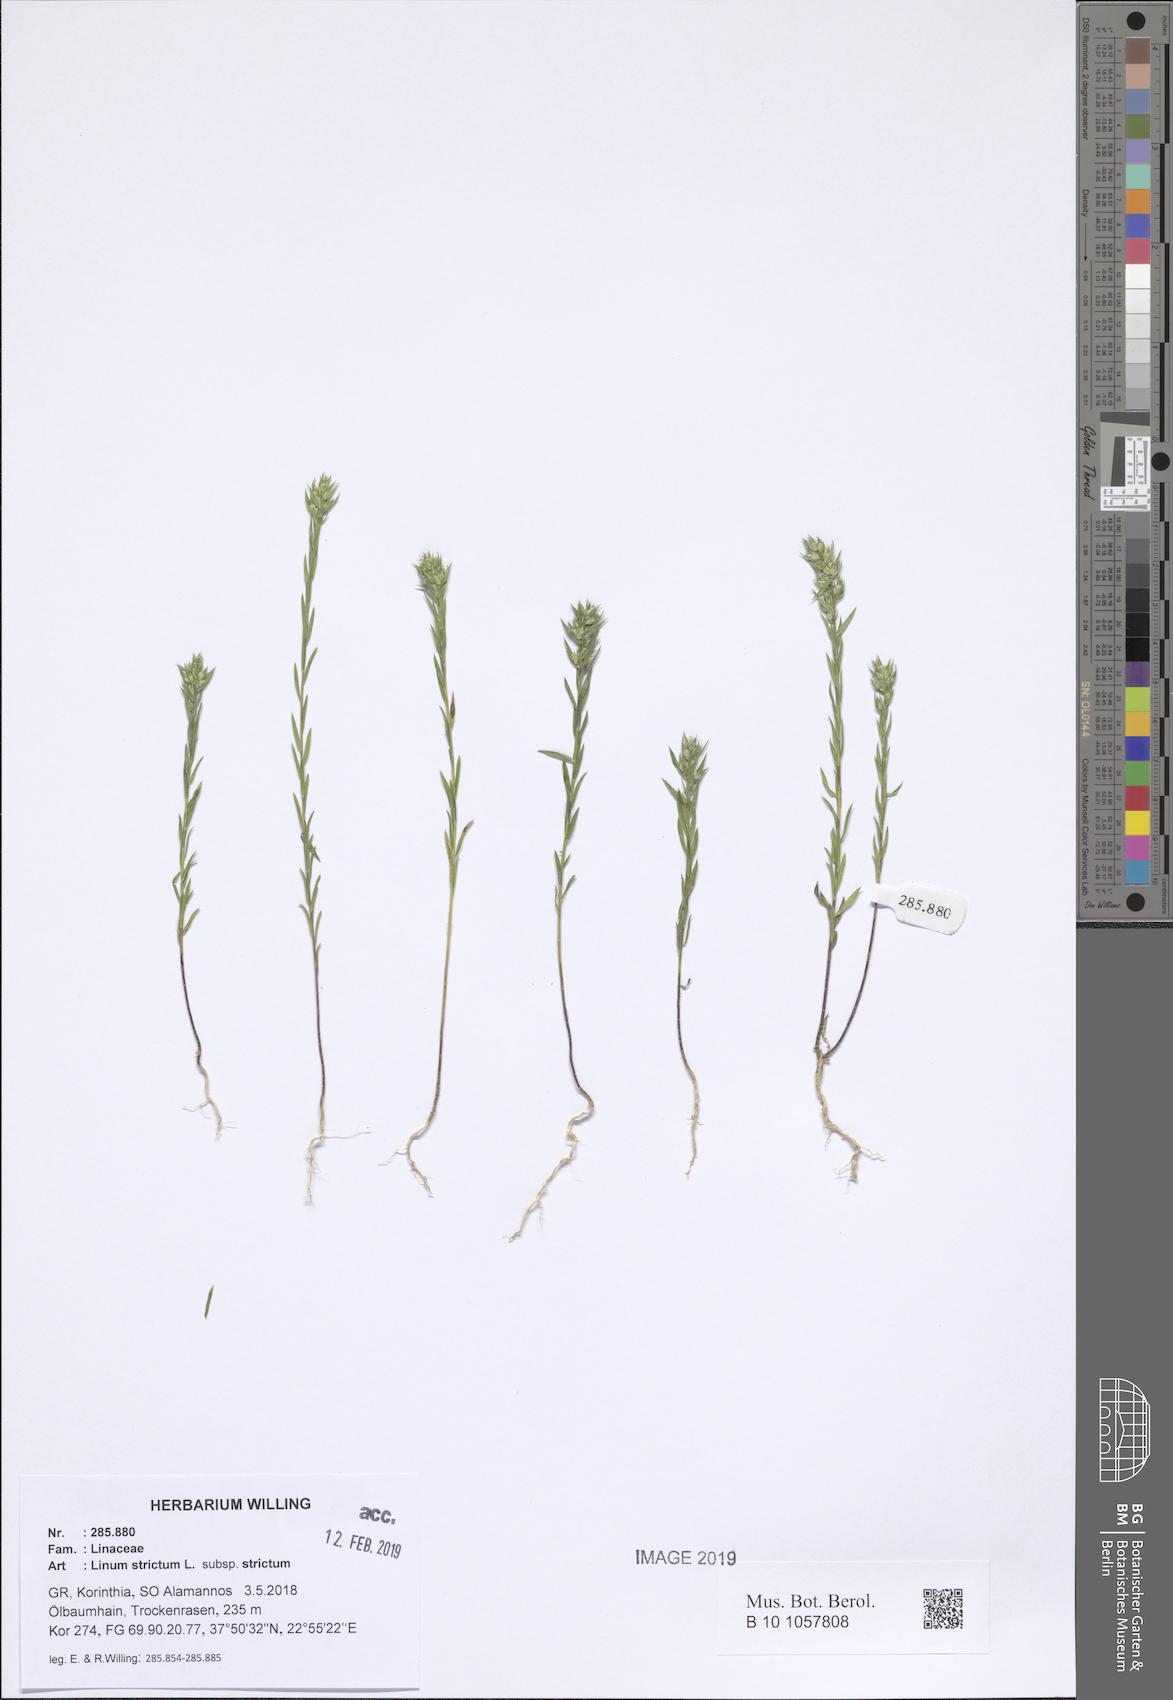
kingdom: Plantae
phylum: Tracheophyta
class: Magnoliopsida
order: Malpighiales
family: Linaceae
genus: Linum
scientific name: Linum strictum
